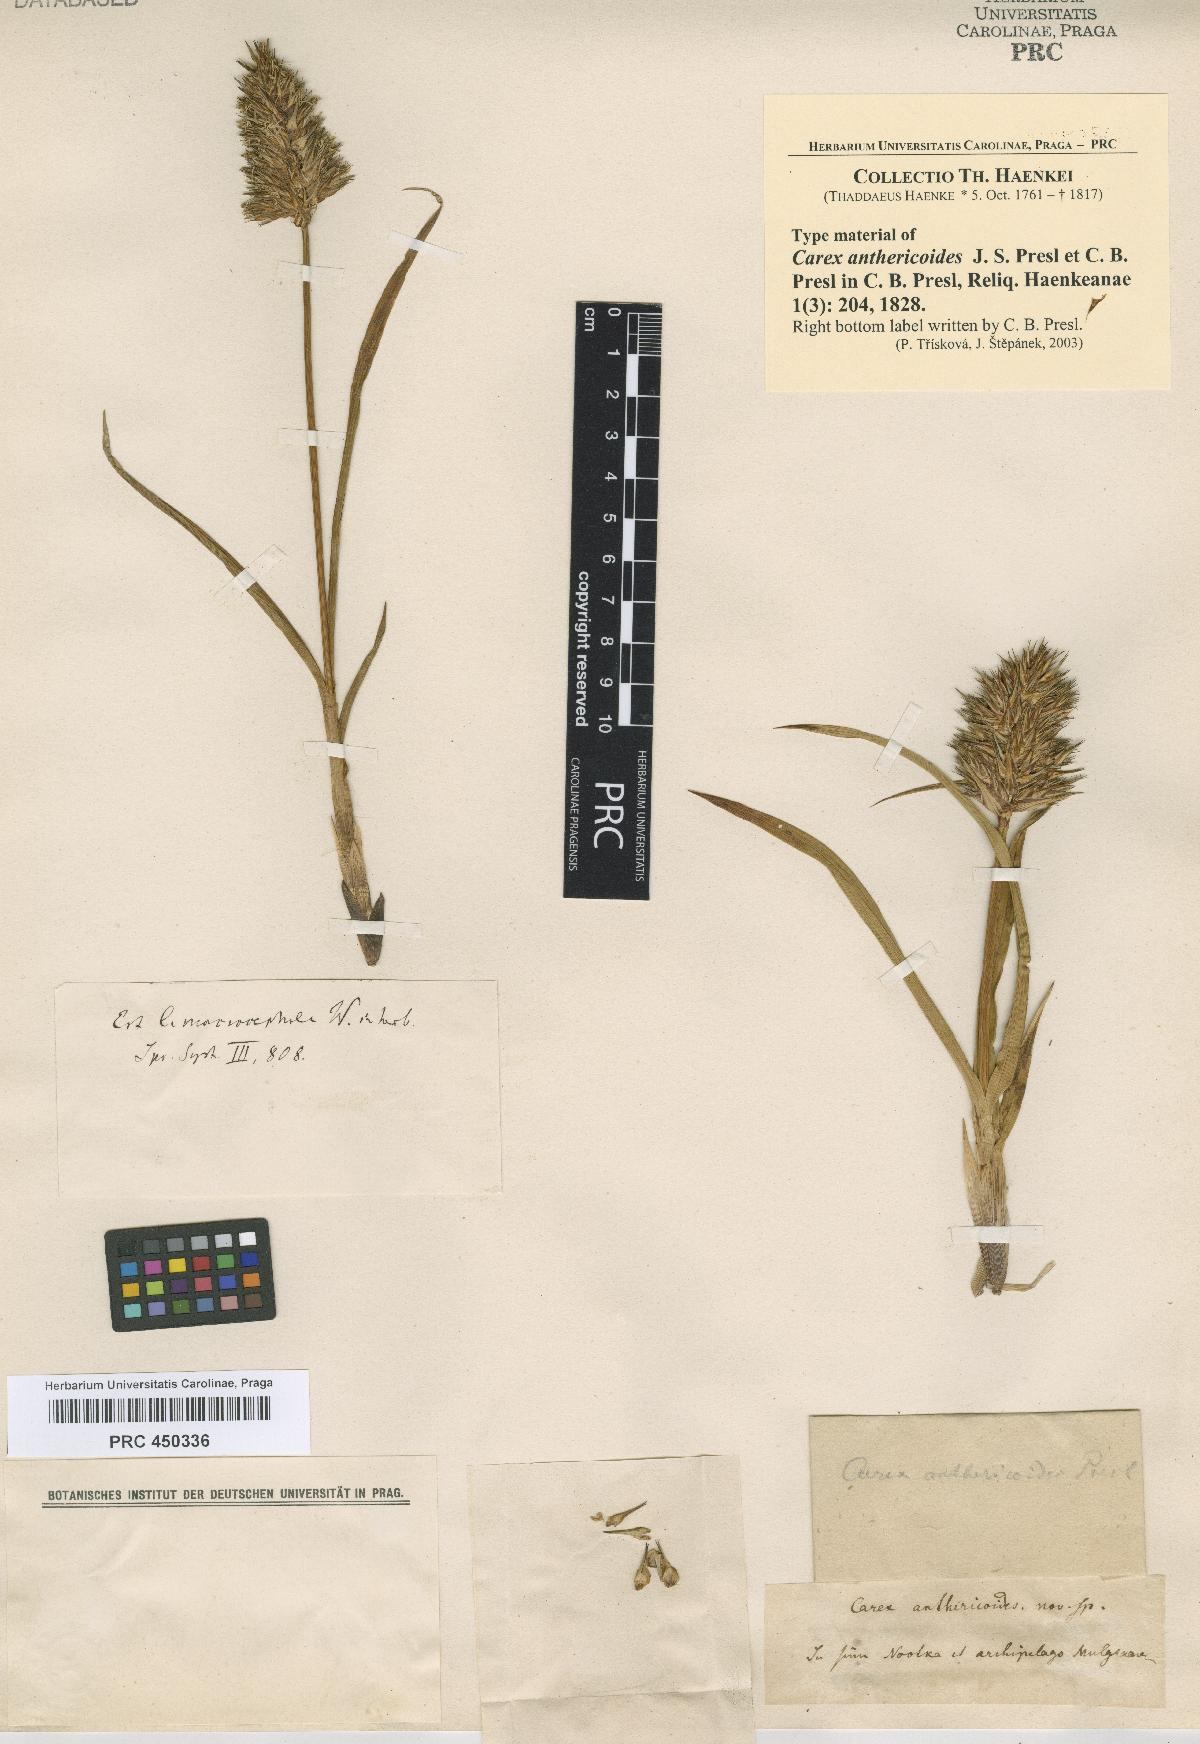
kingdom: Plantae
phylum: Tracheophyta
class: Liliopsida
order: Poales
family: Cyperaceae
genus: Carex
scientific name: Carex macrocephala
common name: Large-head sedge
